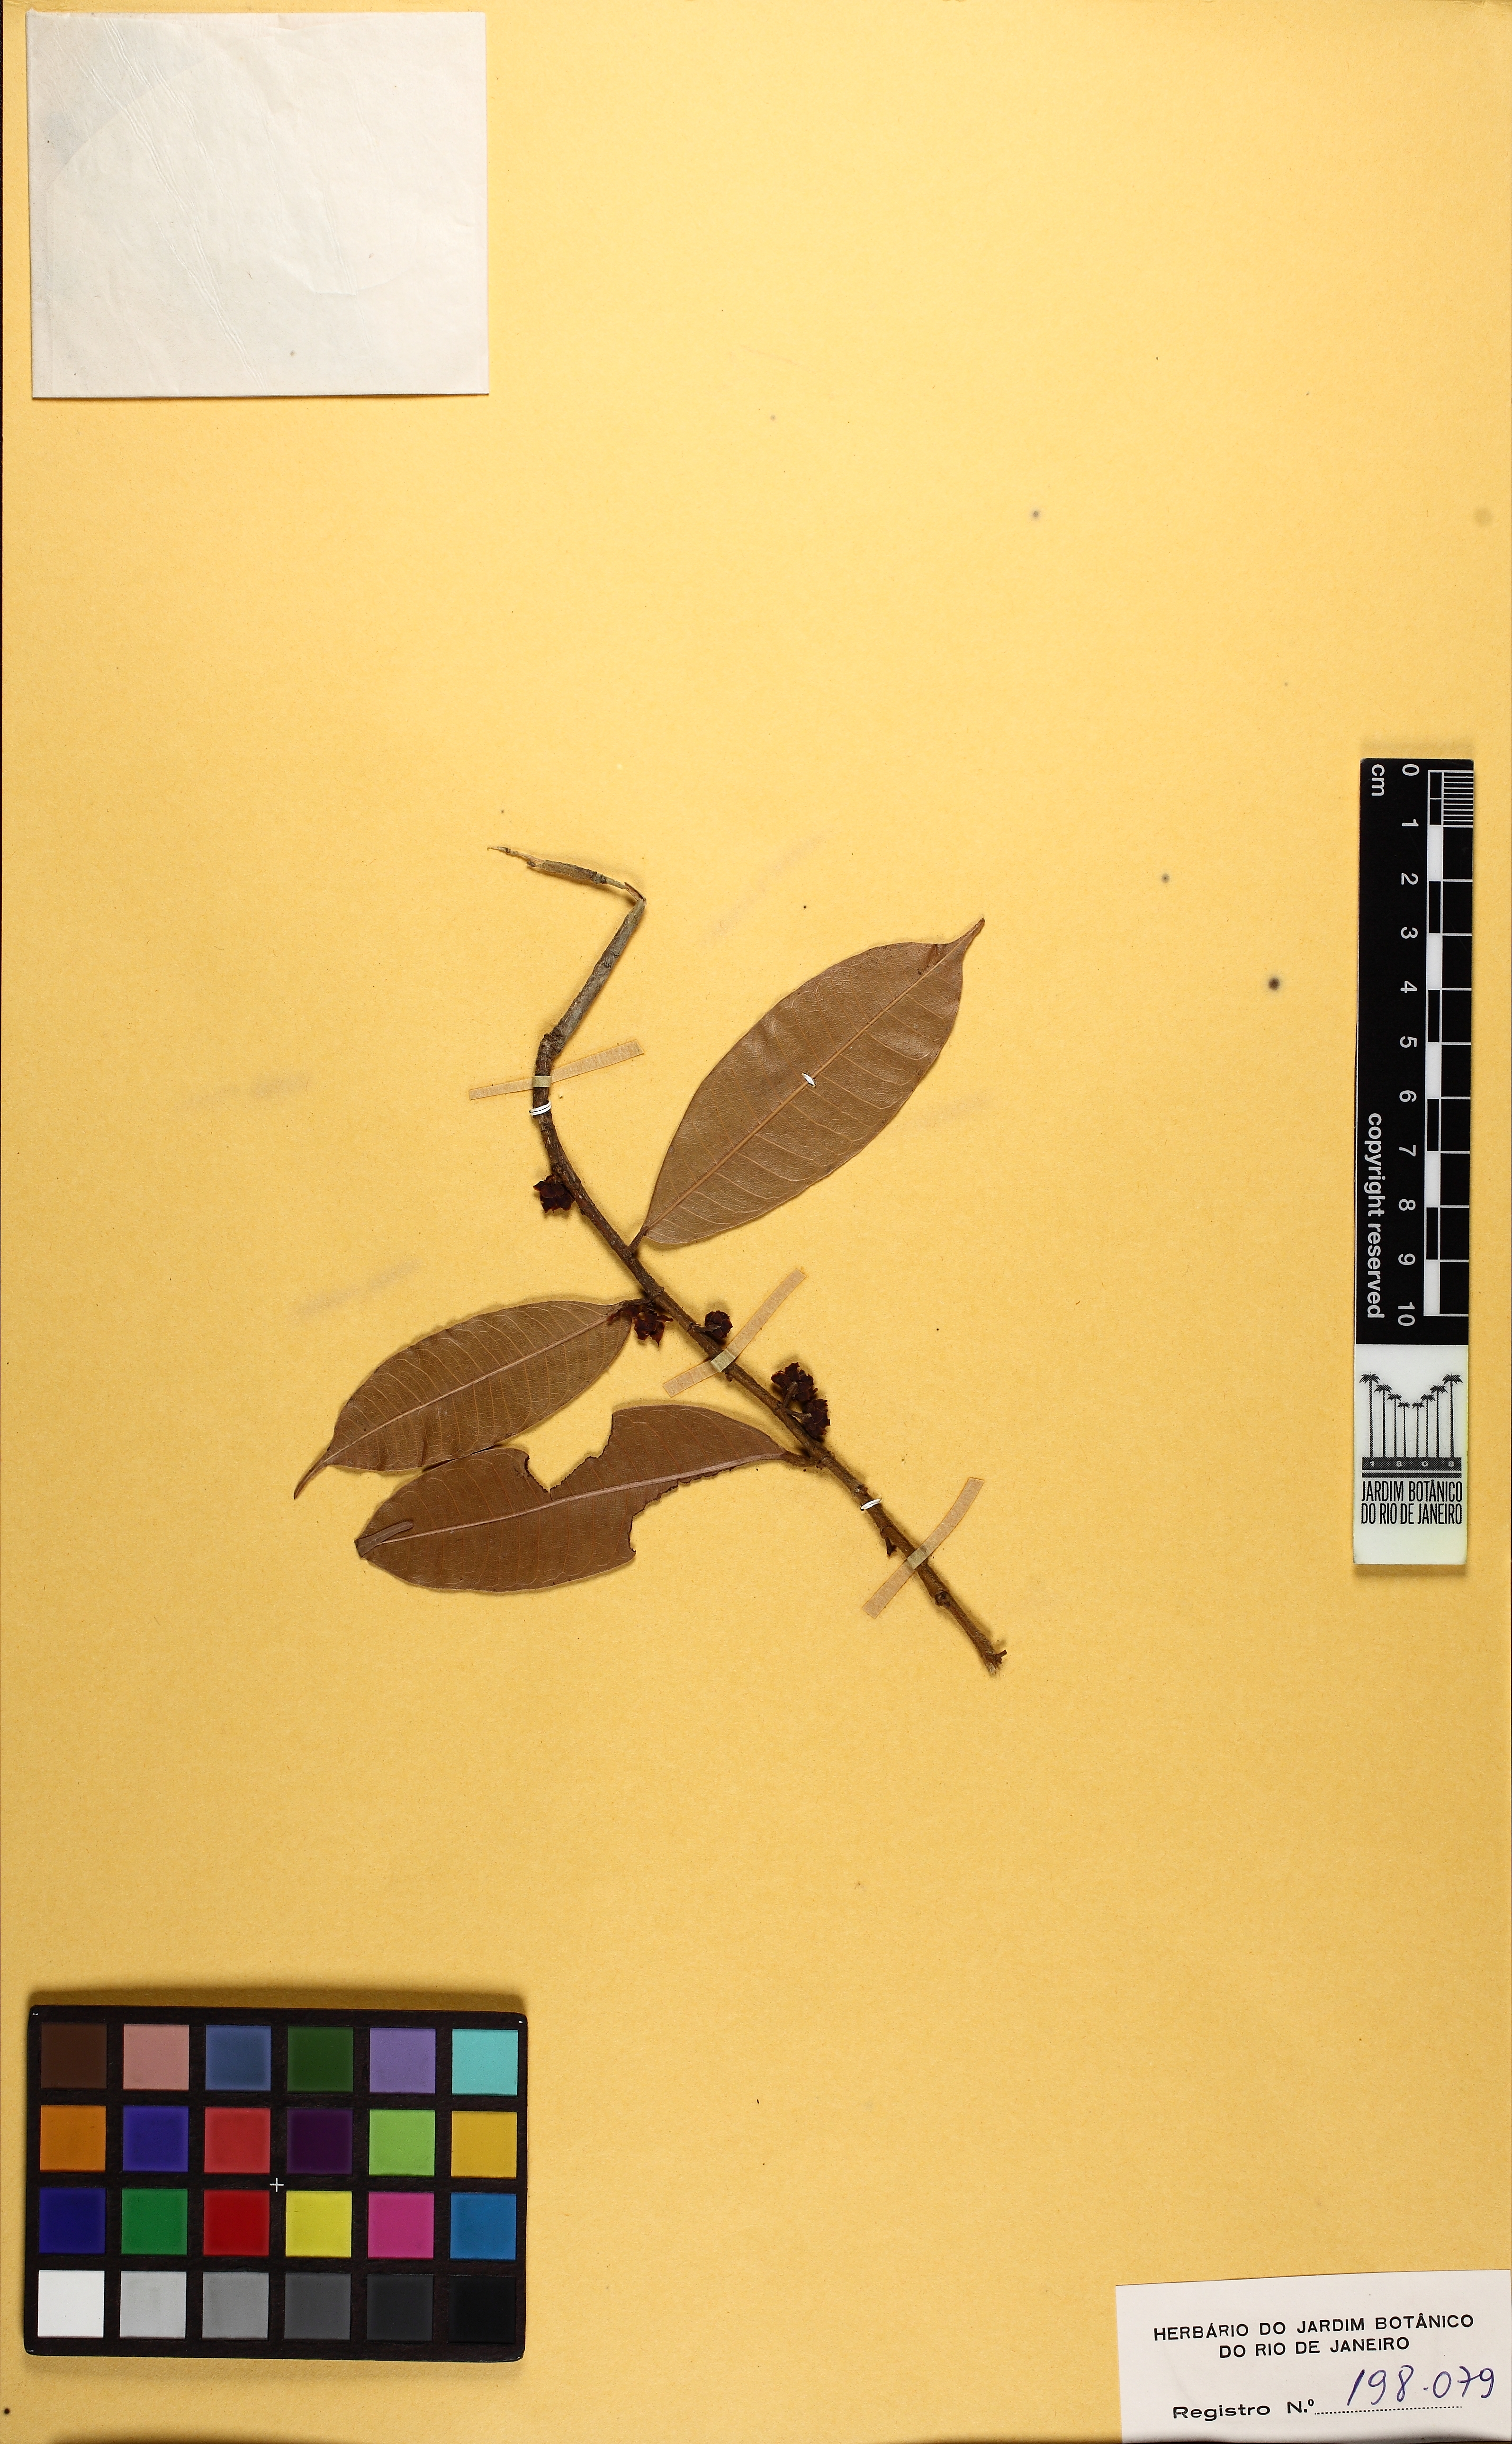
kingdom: Plantae
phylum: Tracheophyta
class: Magnoliopsida
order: Rosales
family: Moraceae
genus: Naucleopsis
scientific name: Naucleopsis inaequalis
